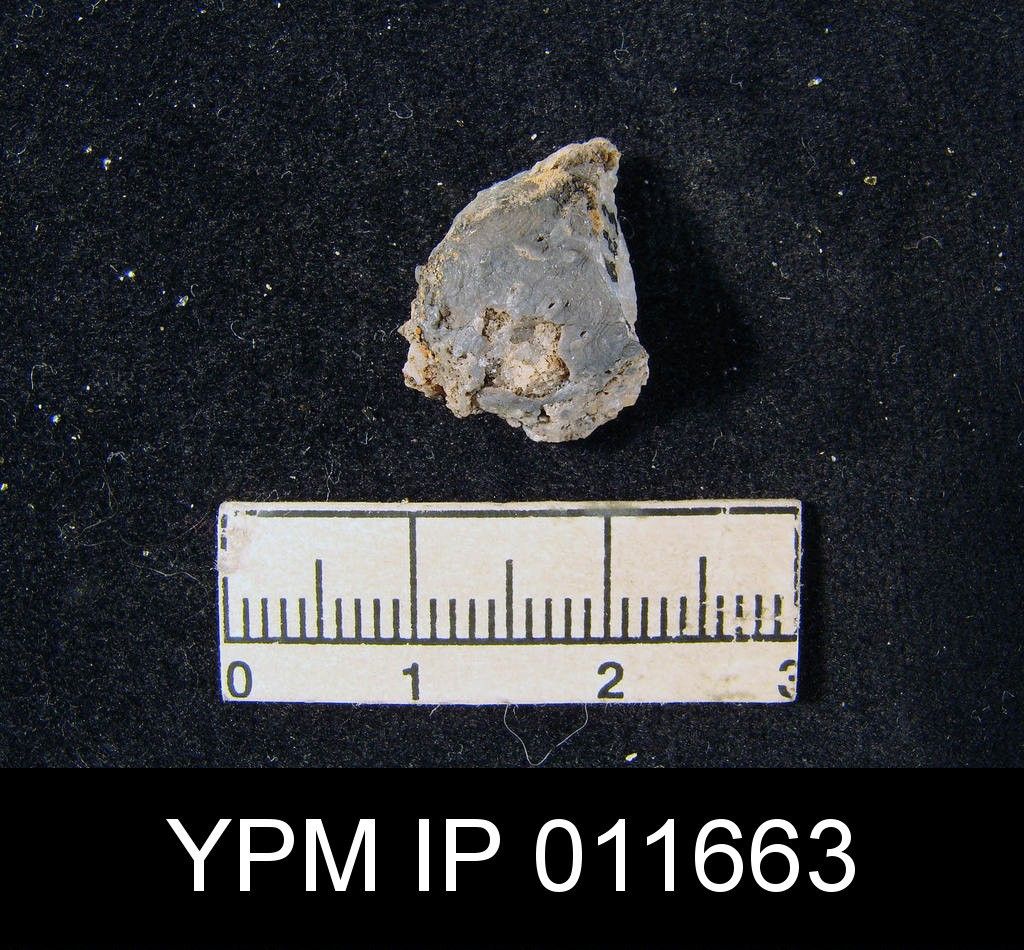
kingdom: Animalia
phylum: Brachiopoda
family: Productellidae
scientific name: Productellidae
